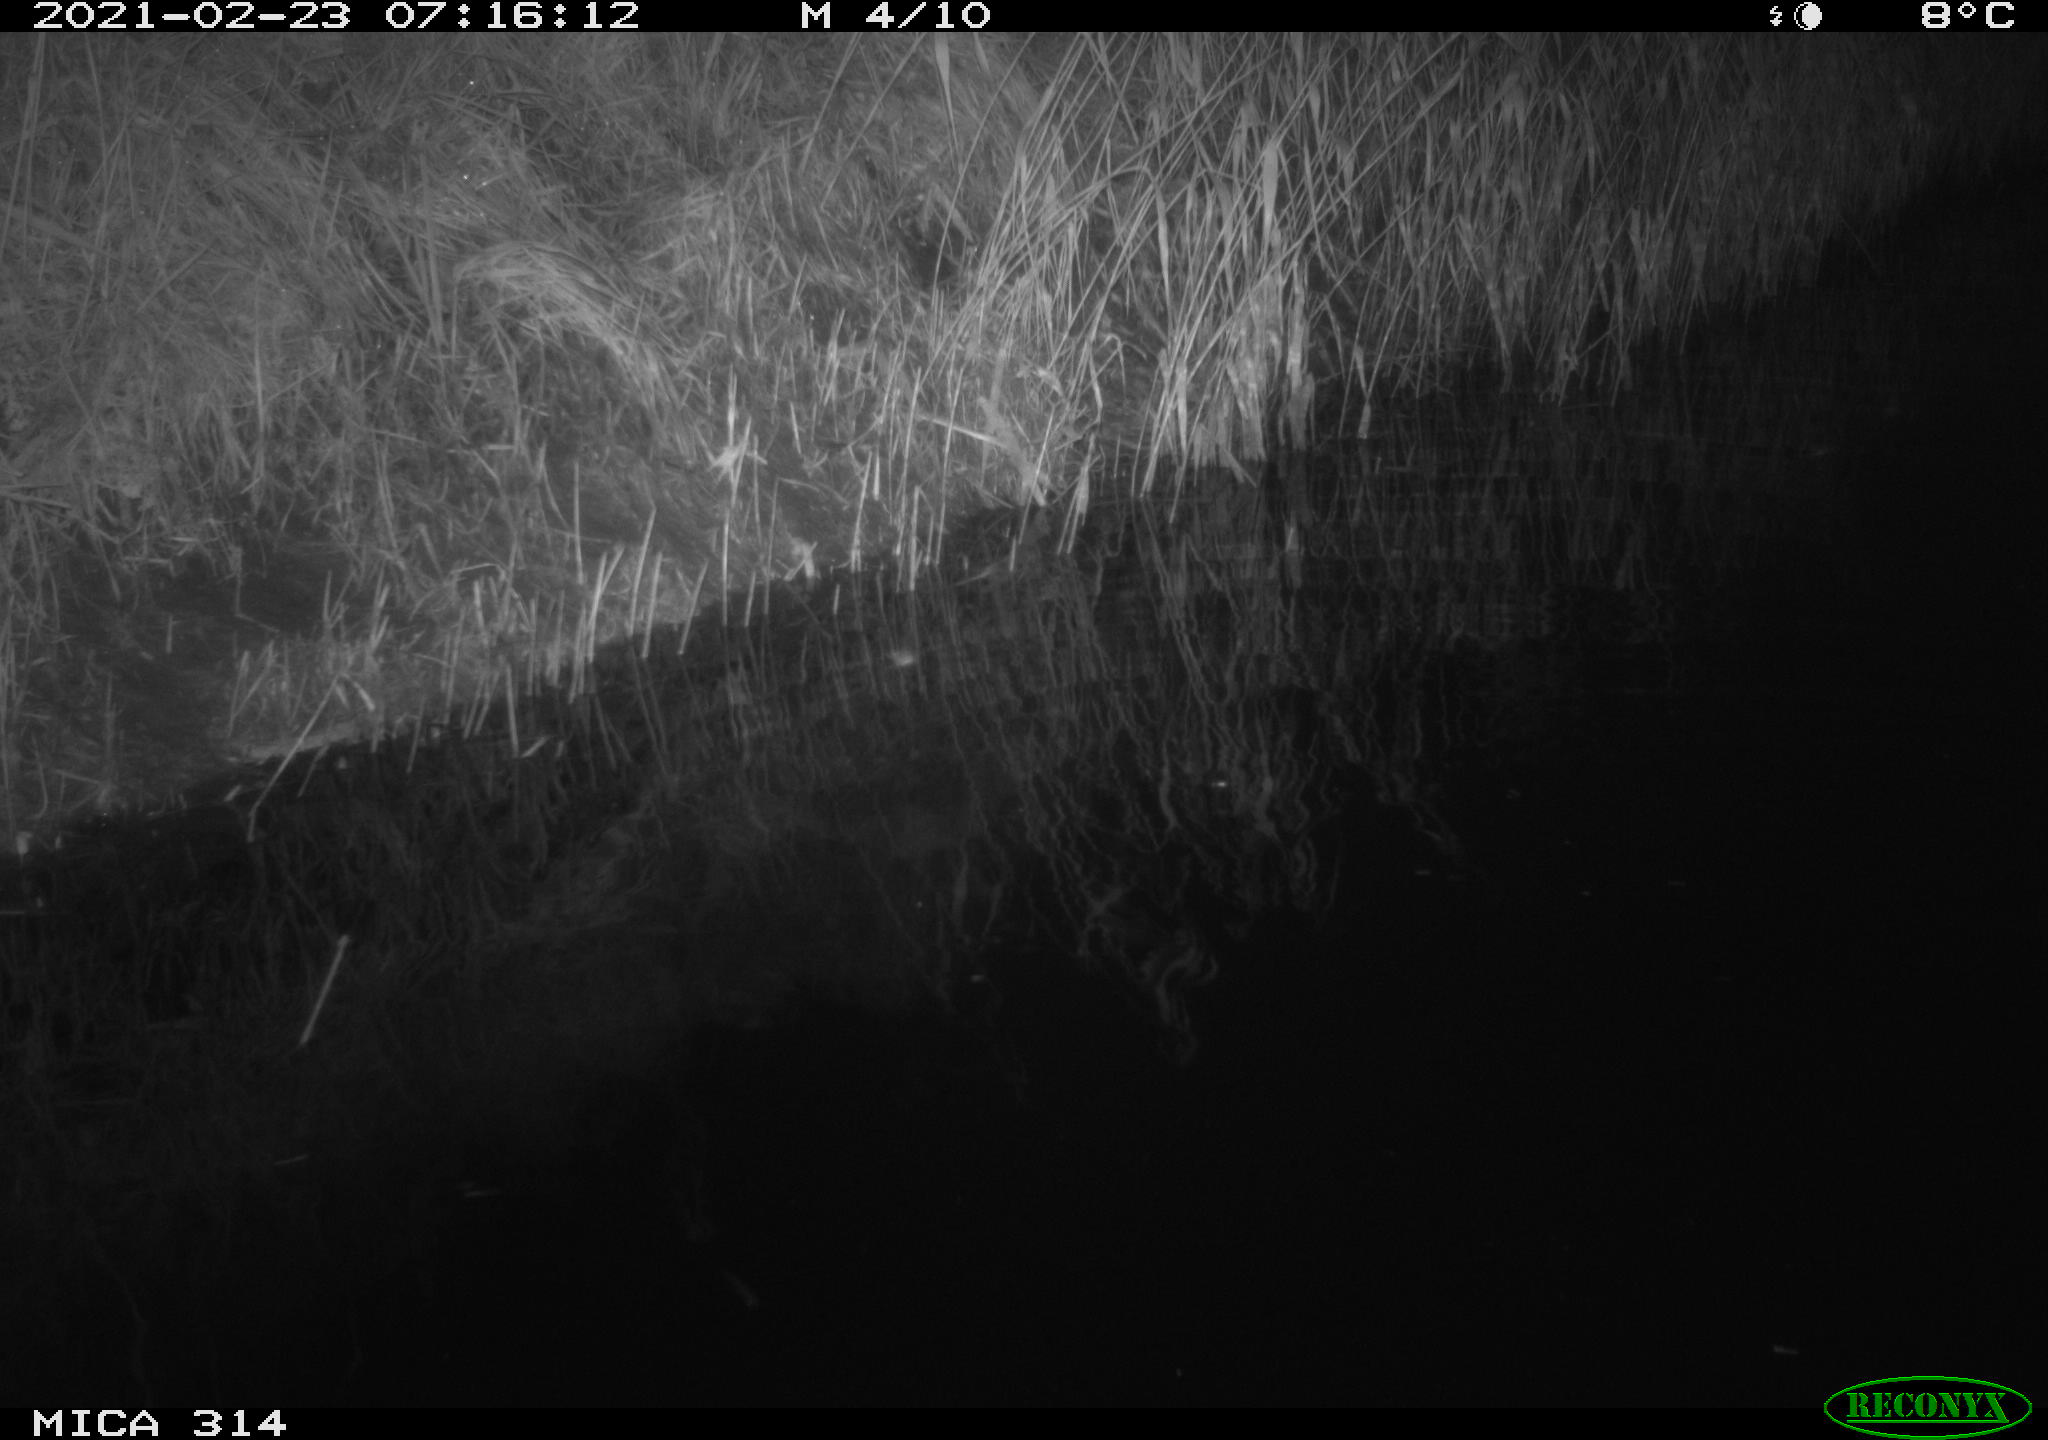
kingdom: Animalia
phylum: Chordata
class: Aves
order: Gruiformes
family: Rallidae
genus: Fulica
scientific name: Fulica atra
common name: Eurasian coot
